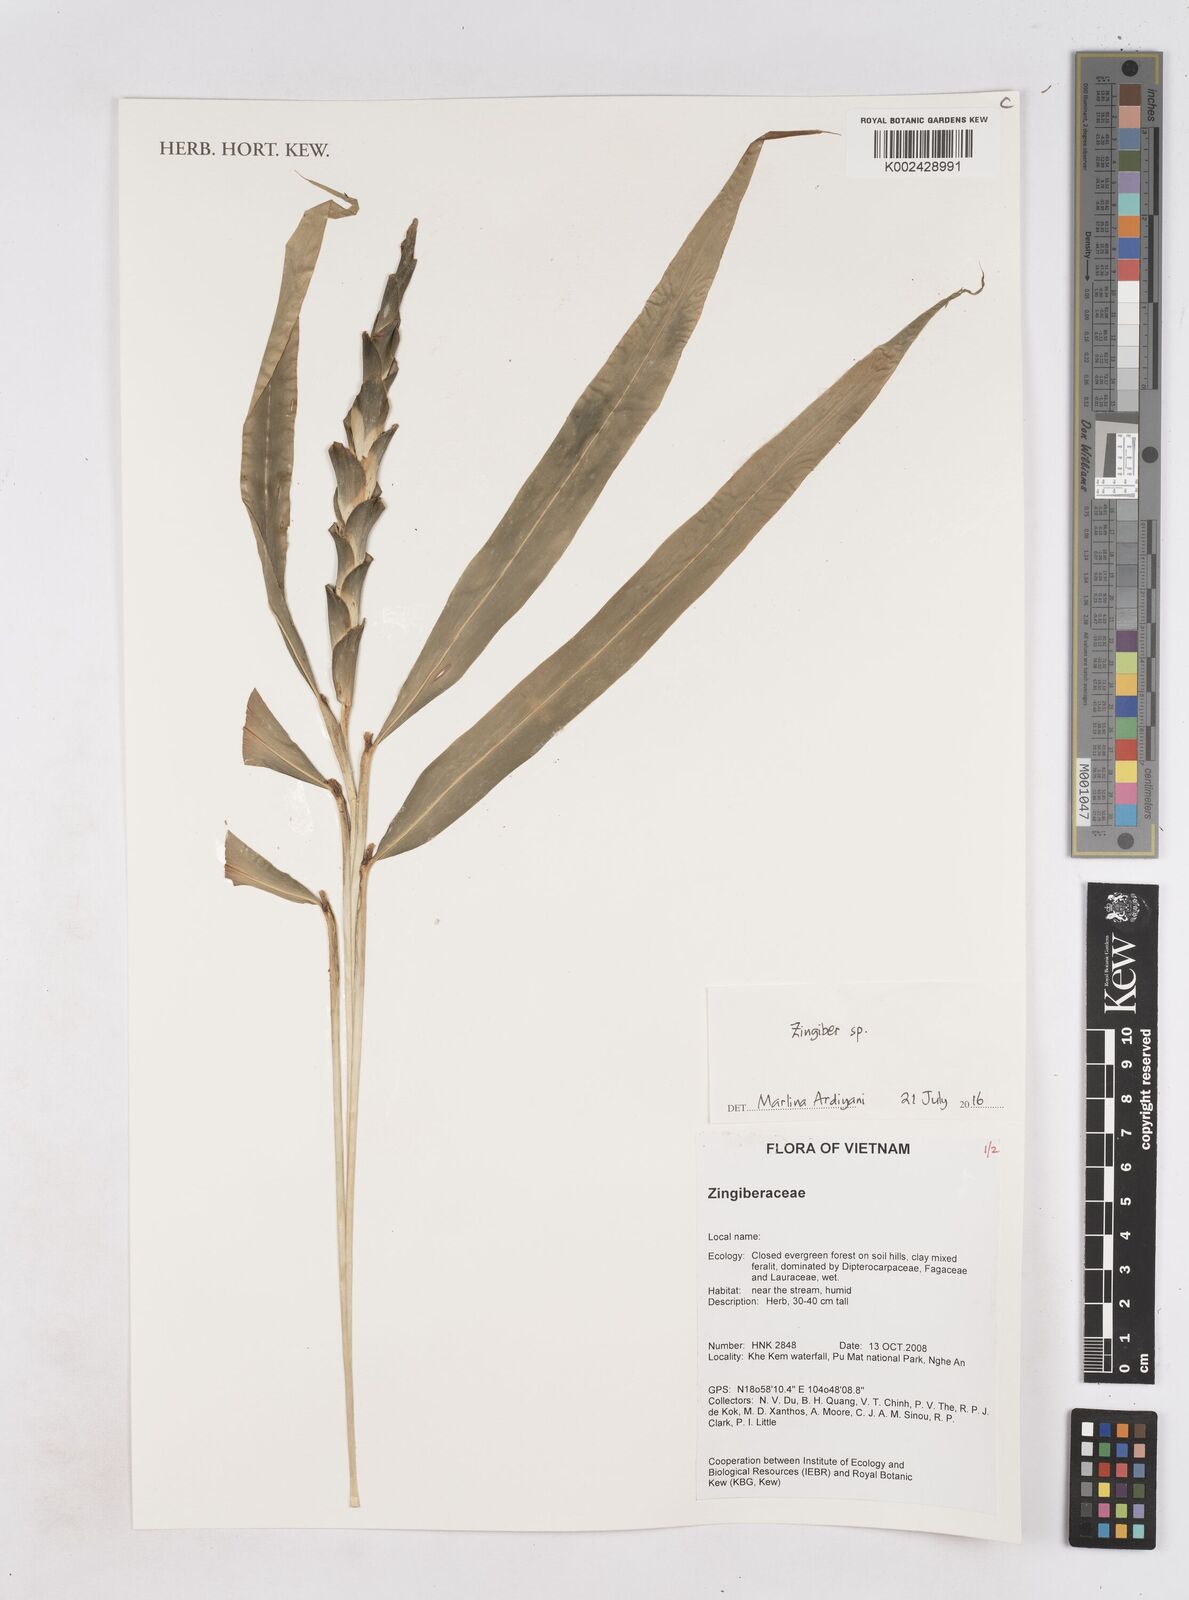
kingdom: Plantae
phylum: Tracheophyta
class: Liliopsida
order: Zingiberales
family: Zingiberaceae
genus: Zingiber
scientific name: Zingiber
